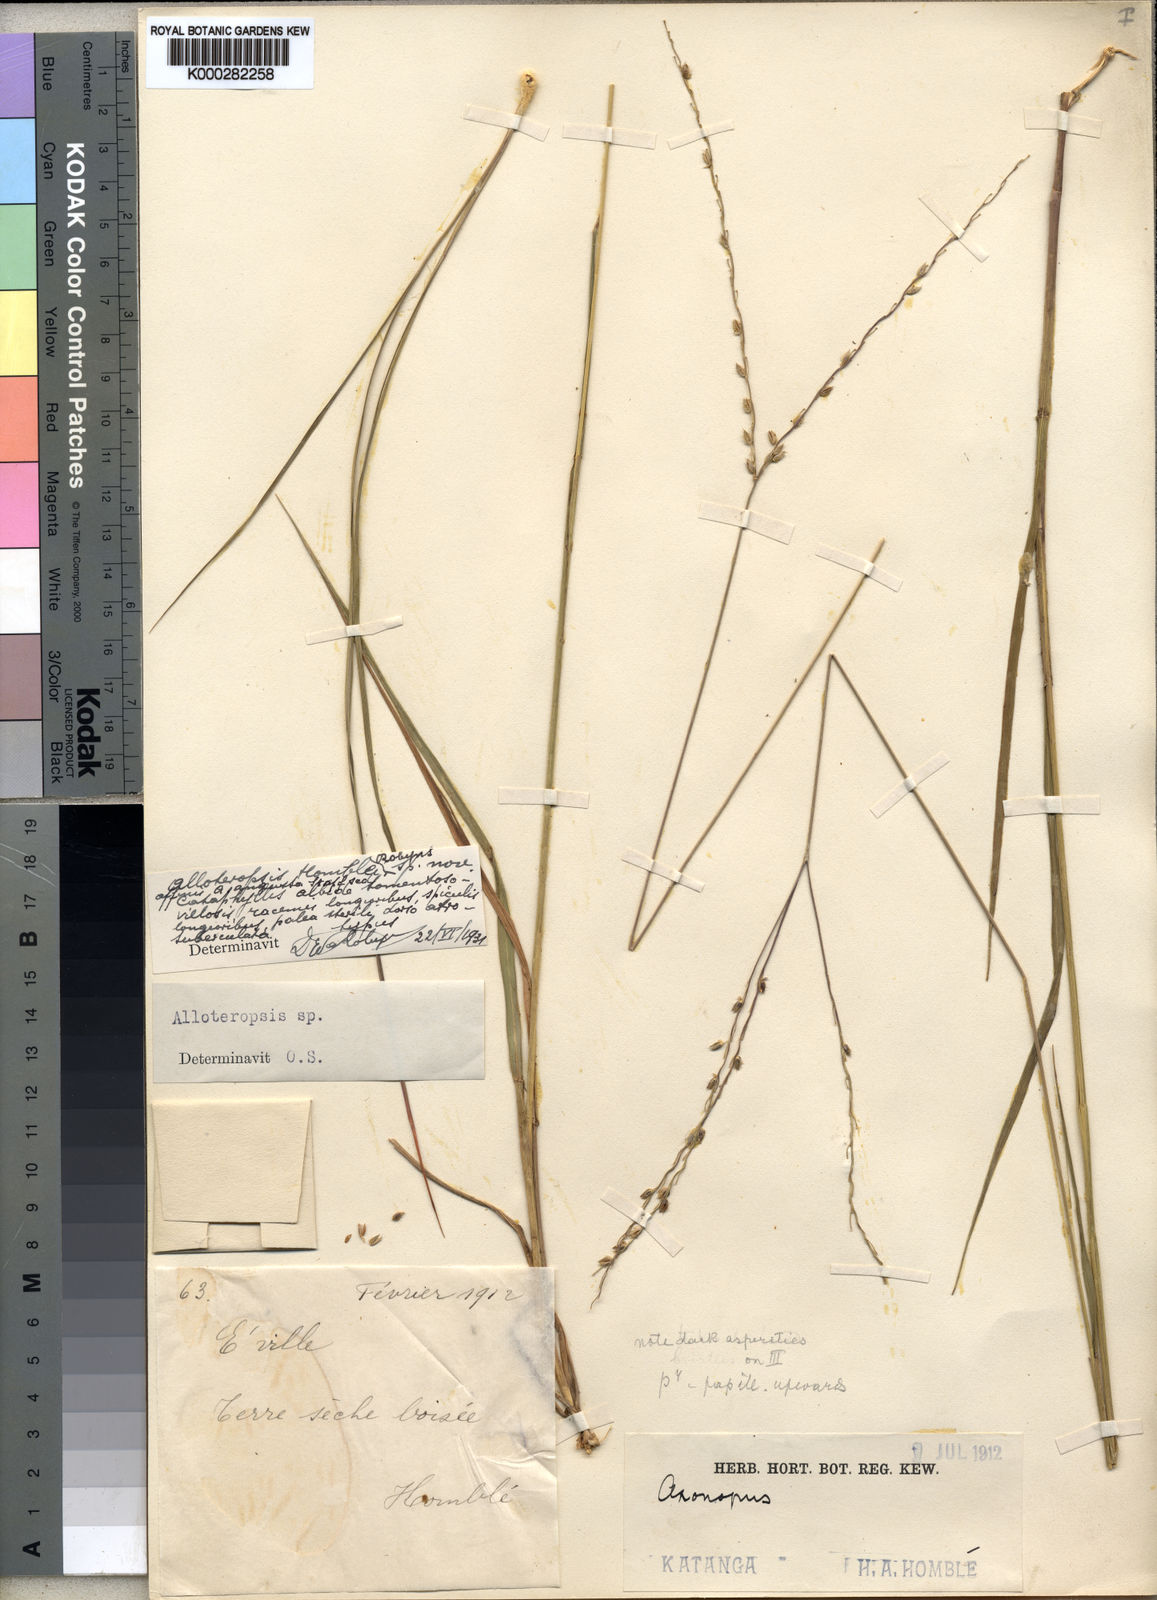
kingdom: Plantae
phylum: Tracheophyta
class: Liliopsida
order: Poales
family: Poaceae
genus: Alloteropsis
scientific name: Alloteropsis semialata
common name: Cockatoo grass
